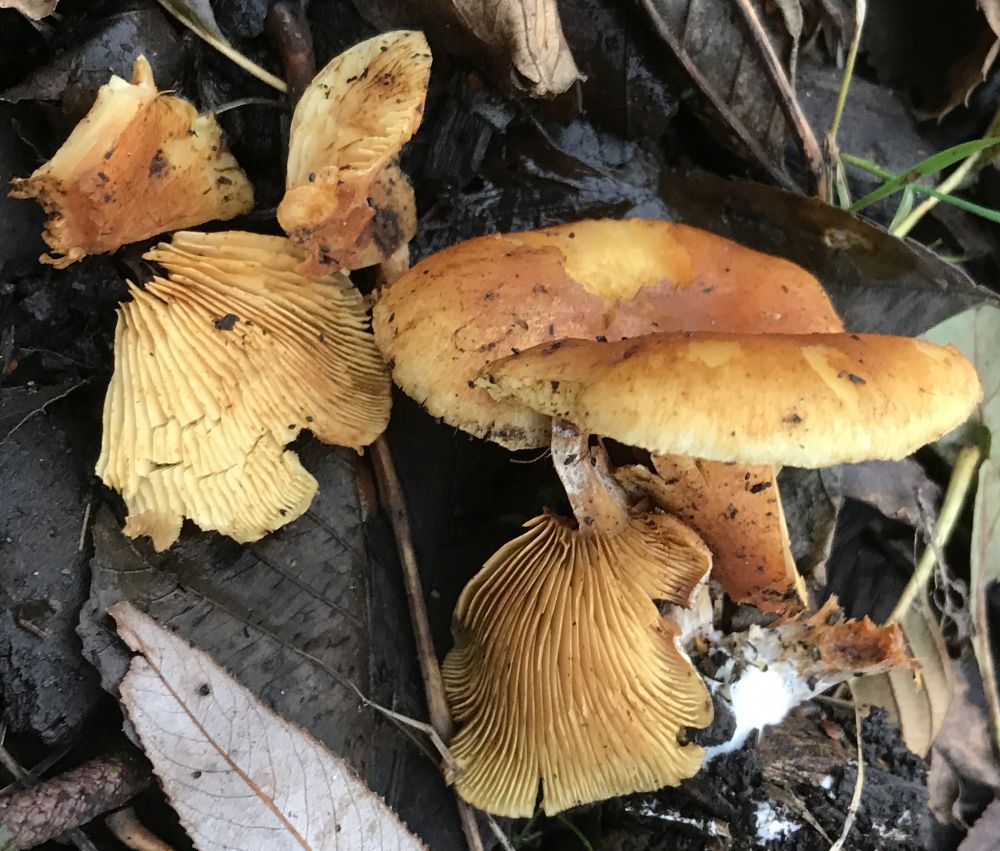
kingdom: Fungi
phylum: Basidiomycota
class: Agaricomycetes
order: Agaricales
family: Hymenogastraceae
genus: Gymnopilus
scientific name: Gymnopilus penetrans
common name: plettet flammehat
